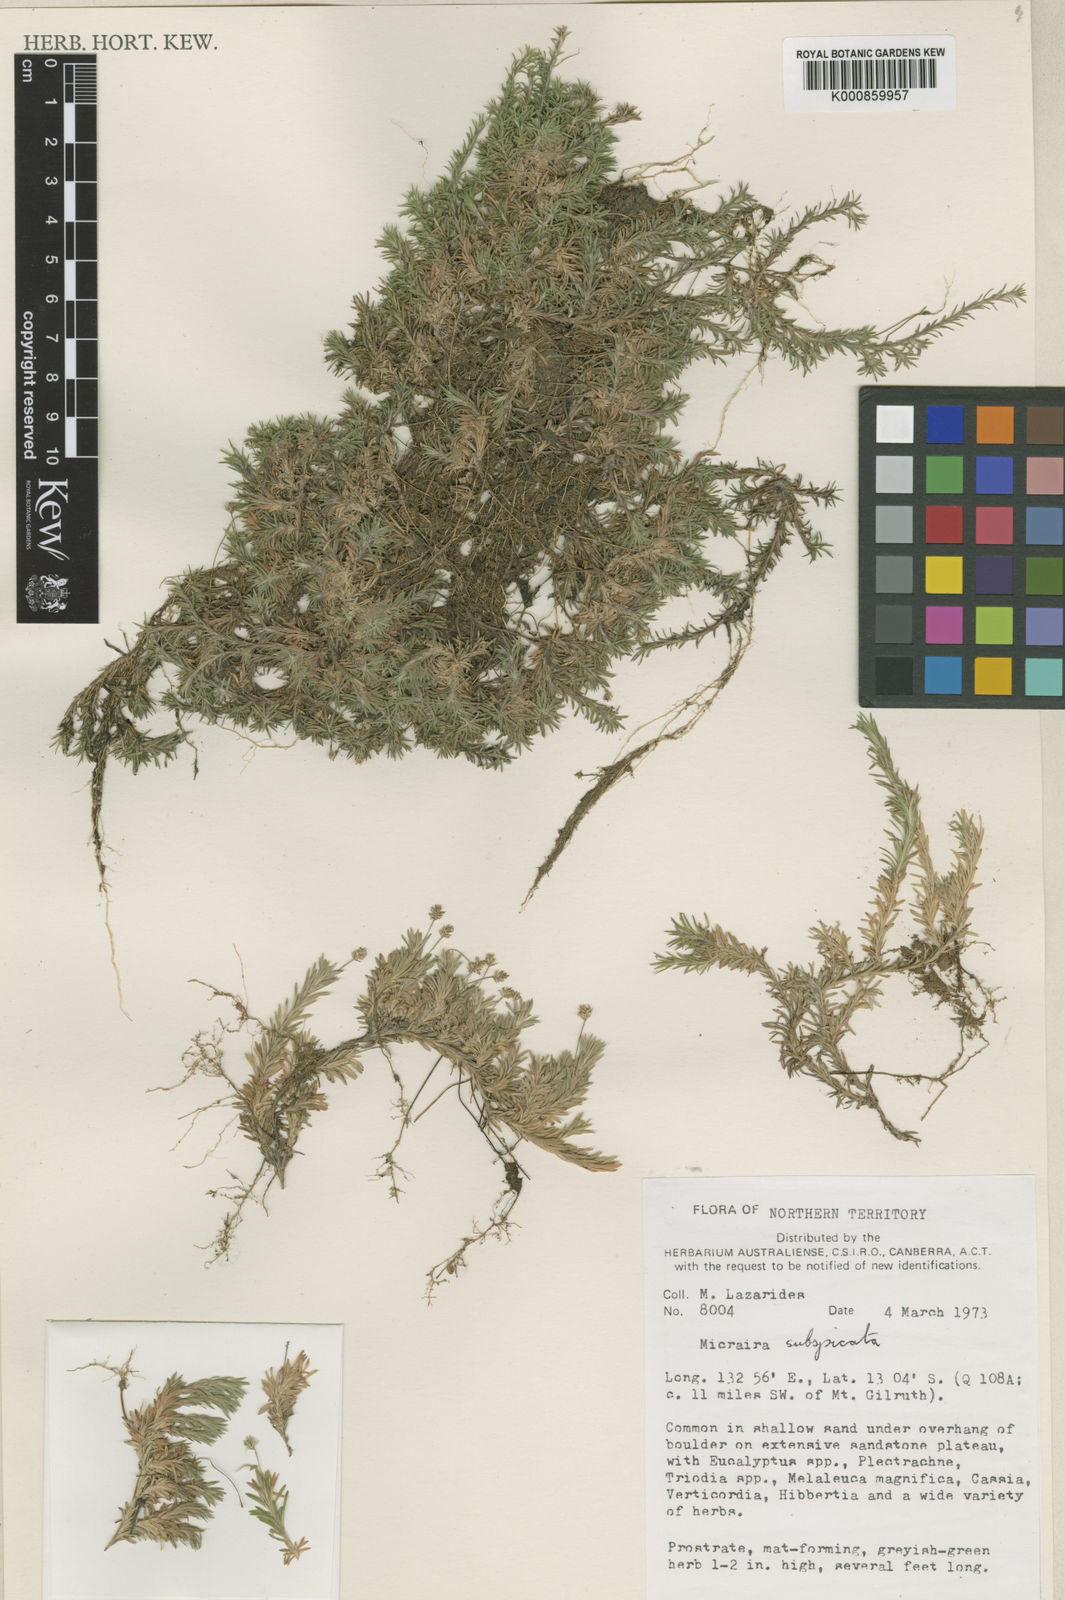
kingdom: Plantae
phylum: Tracheophyta
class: Liliopsida
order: Poales
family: Poaceae
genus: Micraira
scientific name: Micraira subspicata
